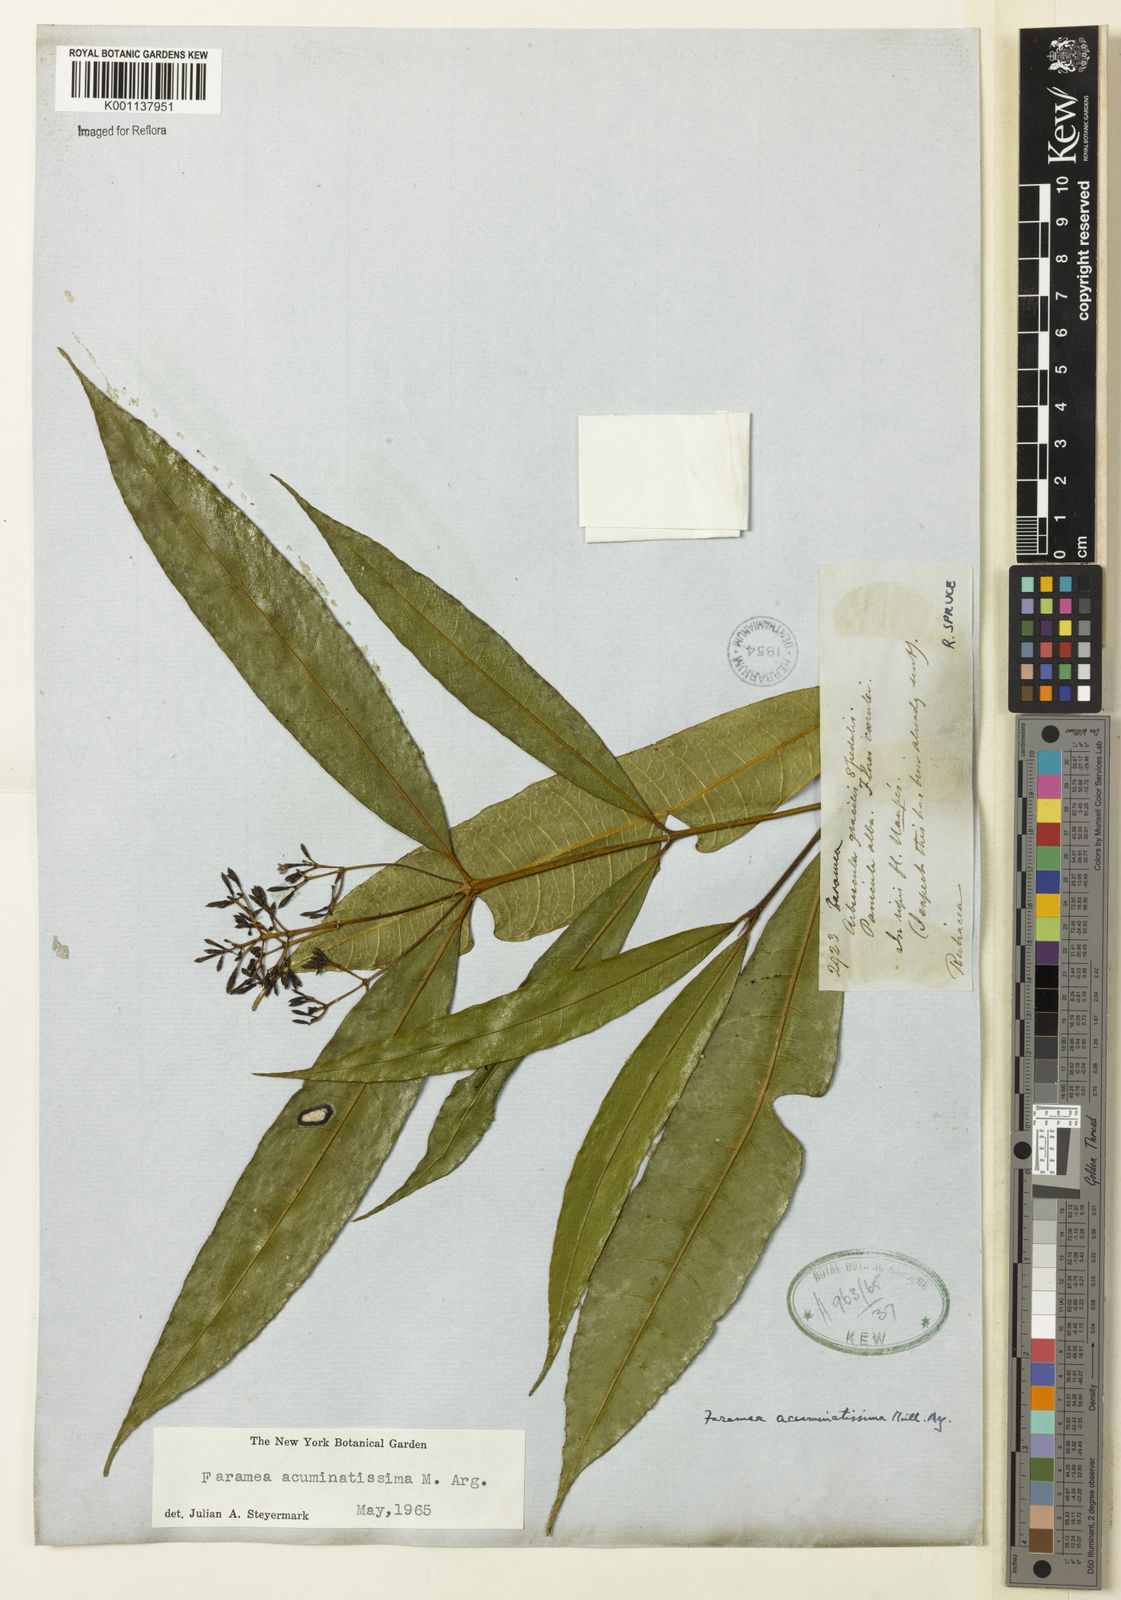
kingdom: Plantae
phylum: Tracheophyta
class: Magnoliopsida
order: Gentianales
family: Rubiaceae
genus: Faramea
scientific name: Faramea
